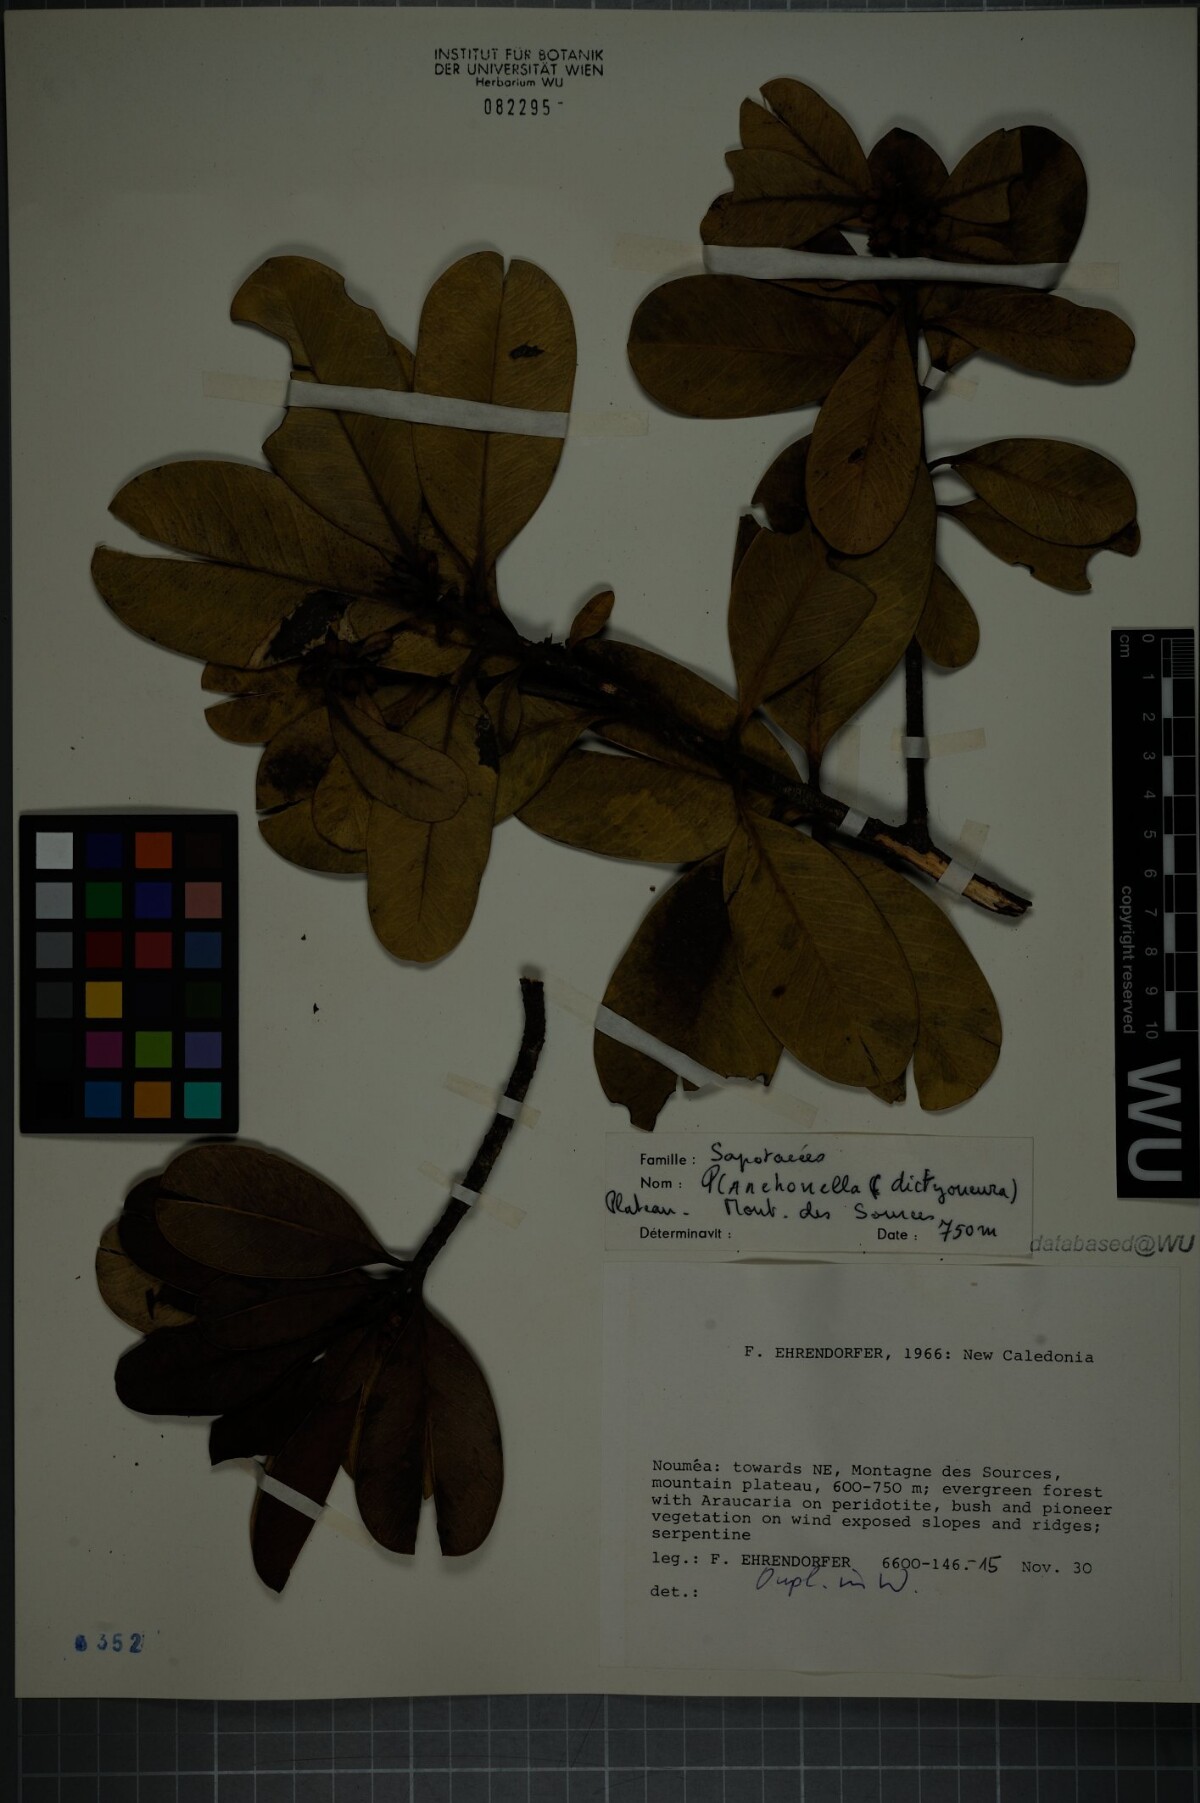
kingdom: Plantae
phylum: Tracheophyta
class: Magnoliopsida
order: Ericales
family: Sapotaceae
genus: Planchonella
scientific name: Planchonella lauracea
